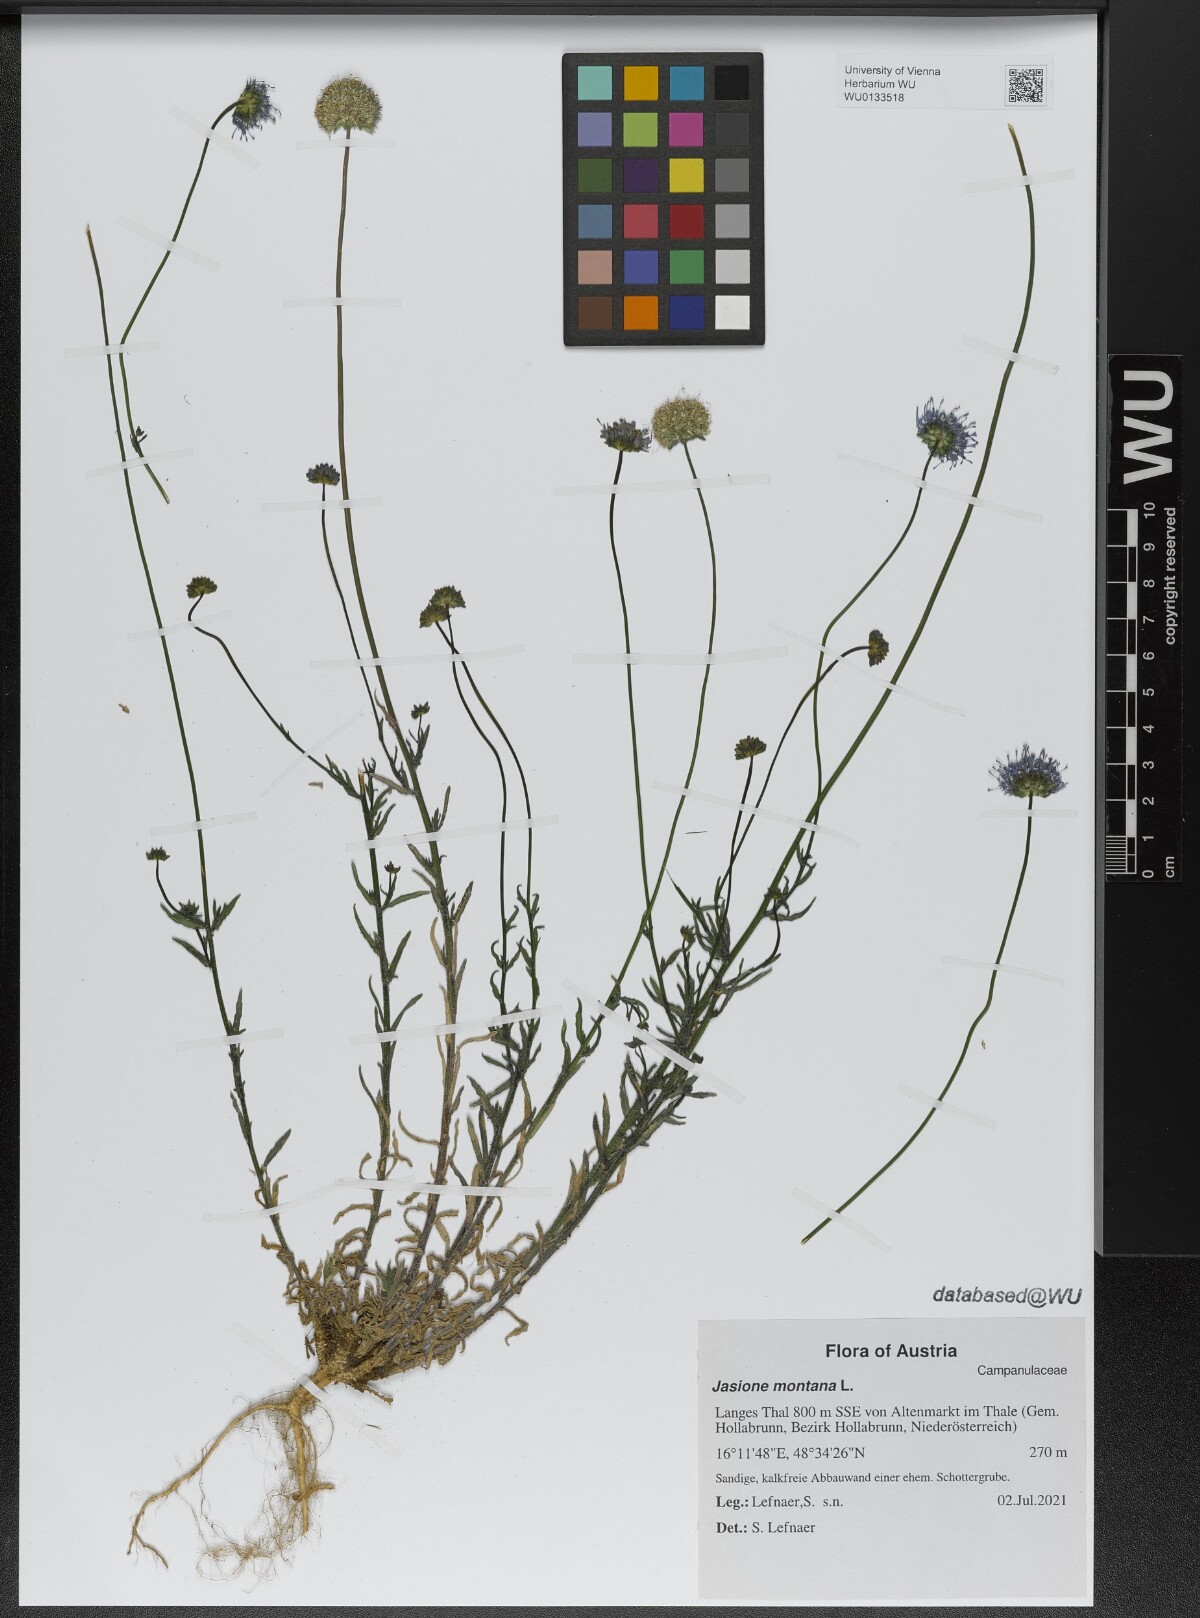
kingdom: Plantae
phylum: Tracheophyta
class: Magnoliopsida
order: Asterales
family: Campanulaceae
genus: Jasione
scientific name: Jasione montana
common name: Sheep's-bit
